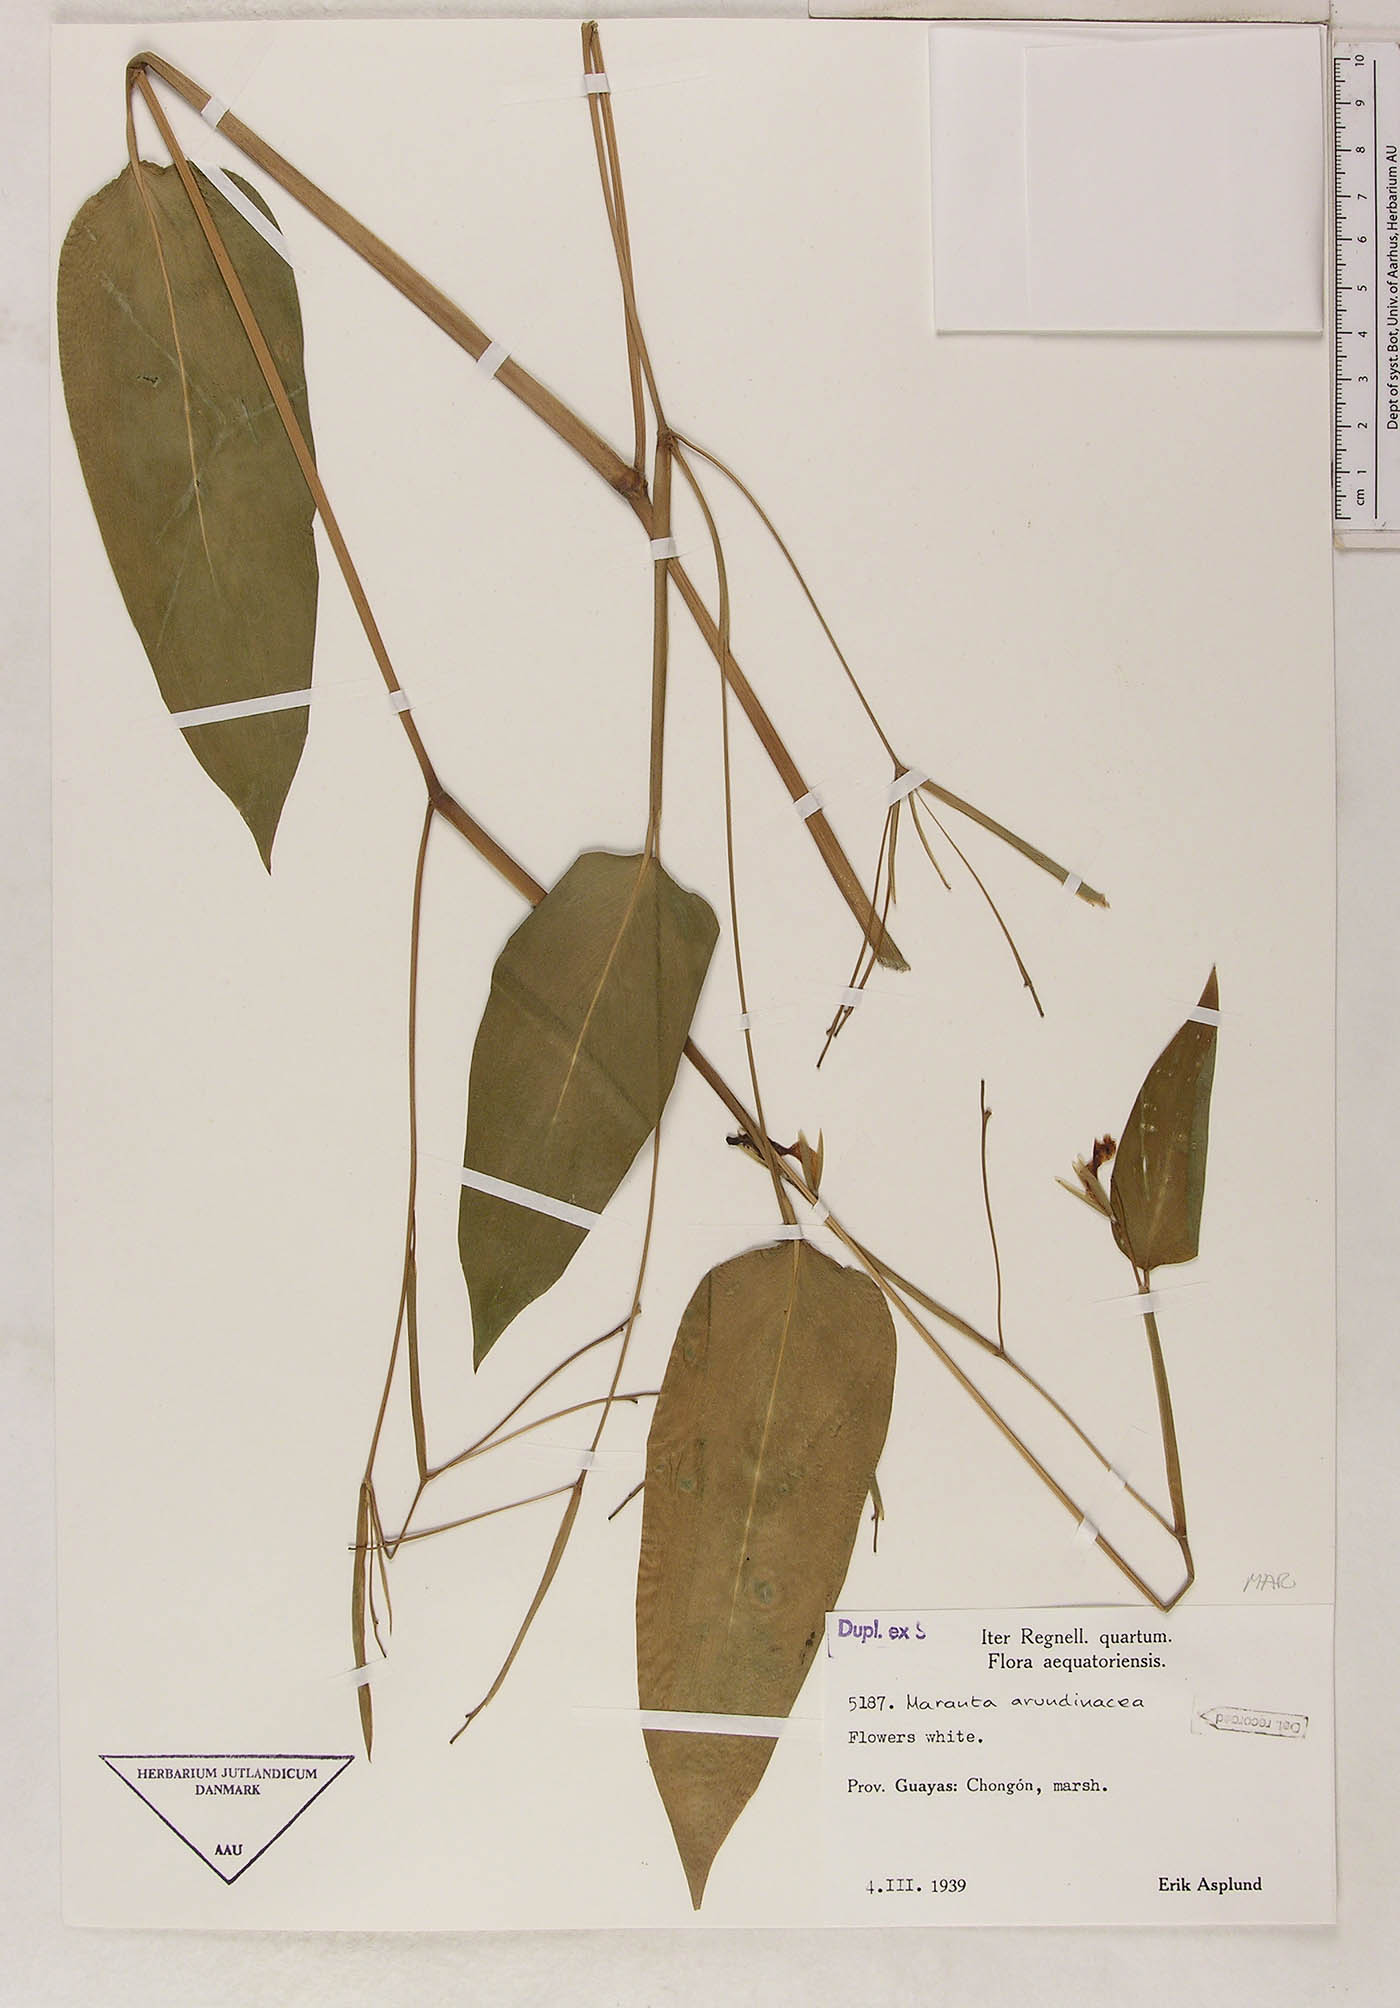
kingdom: Plantae
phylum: Tracheophyta
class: Liliopsida
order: Zingiberales
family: Marantaceae
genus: Maranta
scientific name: Maranta arundinacea
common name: Arrowroot
